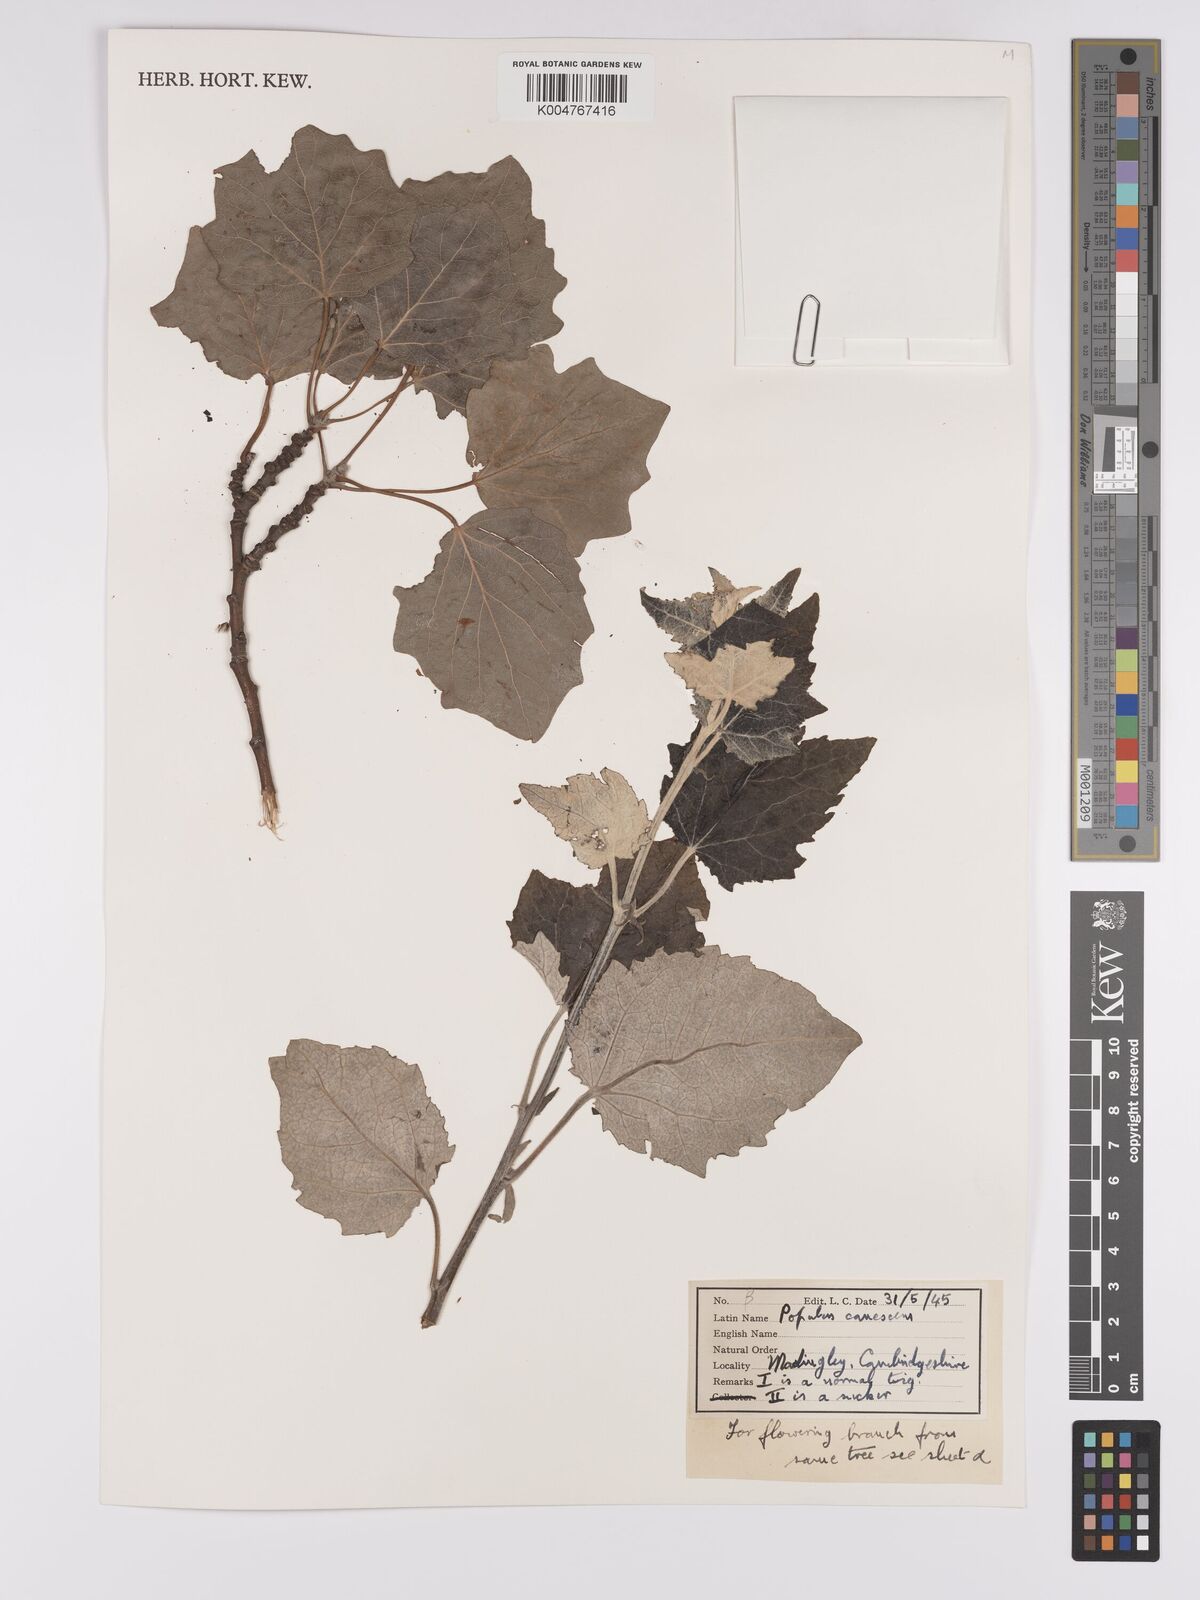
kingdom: Plantae
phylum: Tracheophyta
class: Magnoliopsida
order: Malpighiales
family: Salicaceae
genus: Populus
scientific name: Populus canescens
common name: Gray poplar
